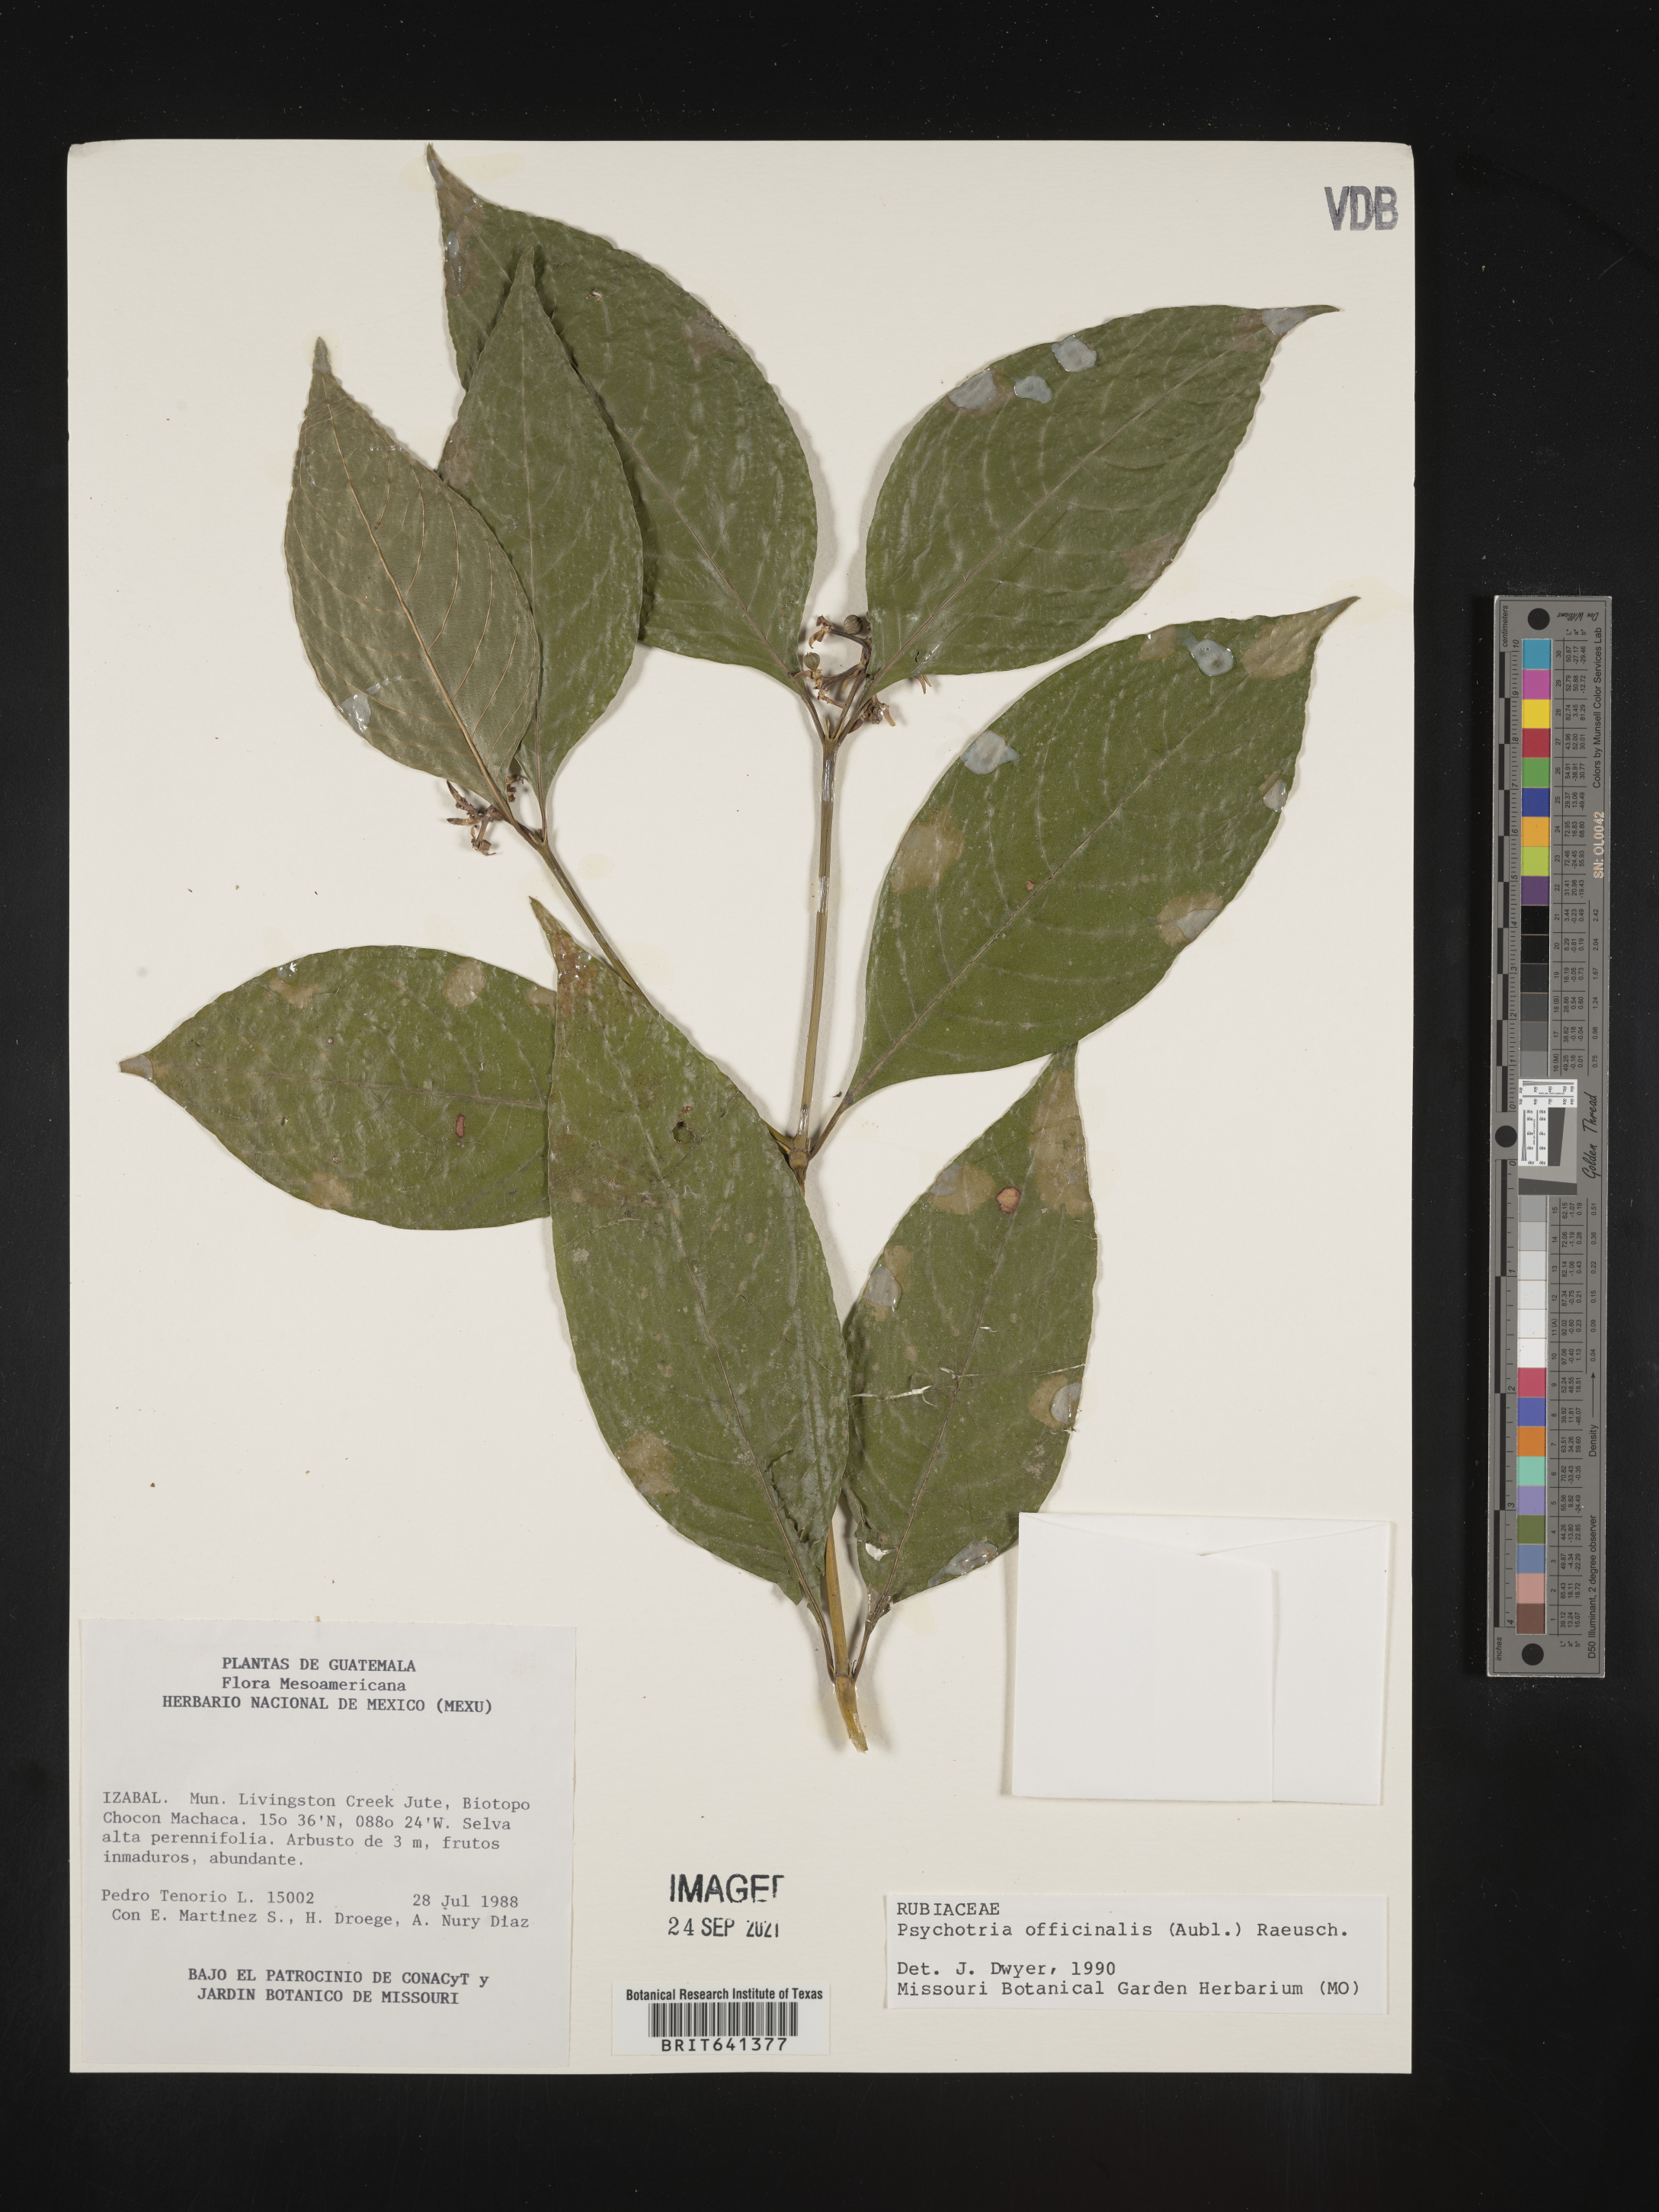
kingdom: Plantae
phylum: Tracheophyta
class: Magnoliopsida
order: Gentianales
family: Rubiaceae
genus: Psychotria
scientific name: Psychotria
